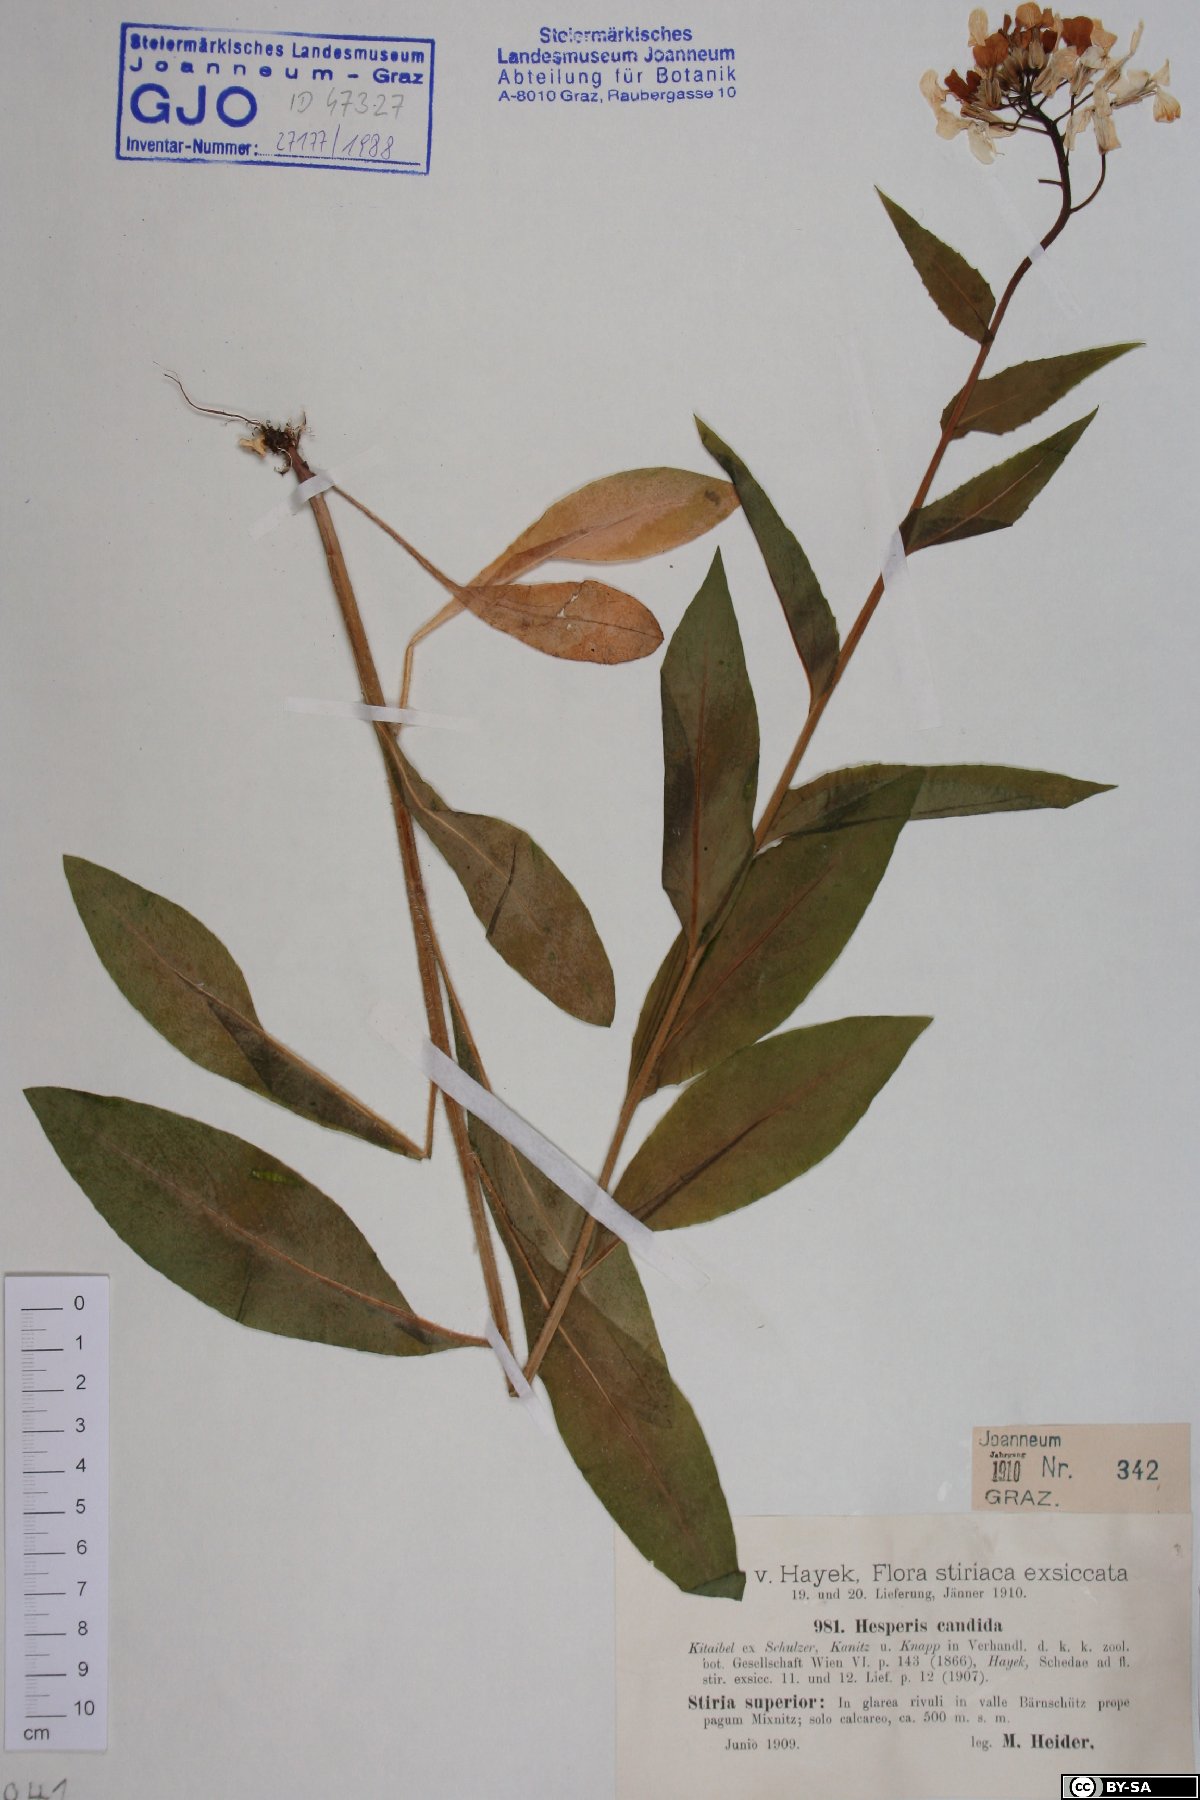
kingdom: Plantae
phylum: Tracheophyta
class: Magnoliopsida
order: Brassicales
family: Brassicaceae
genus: Hesperis
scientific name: Hesperis matronalis
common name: Dame's-violet
